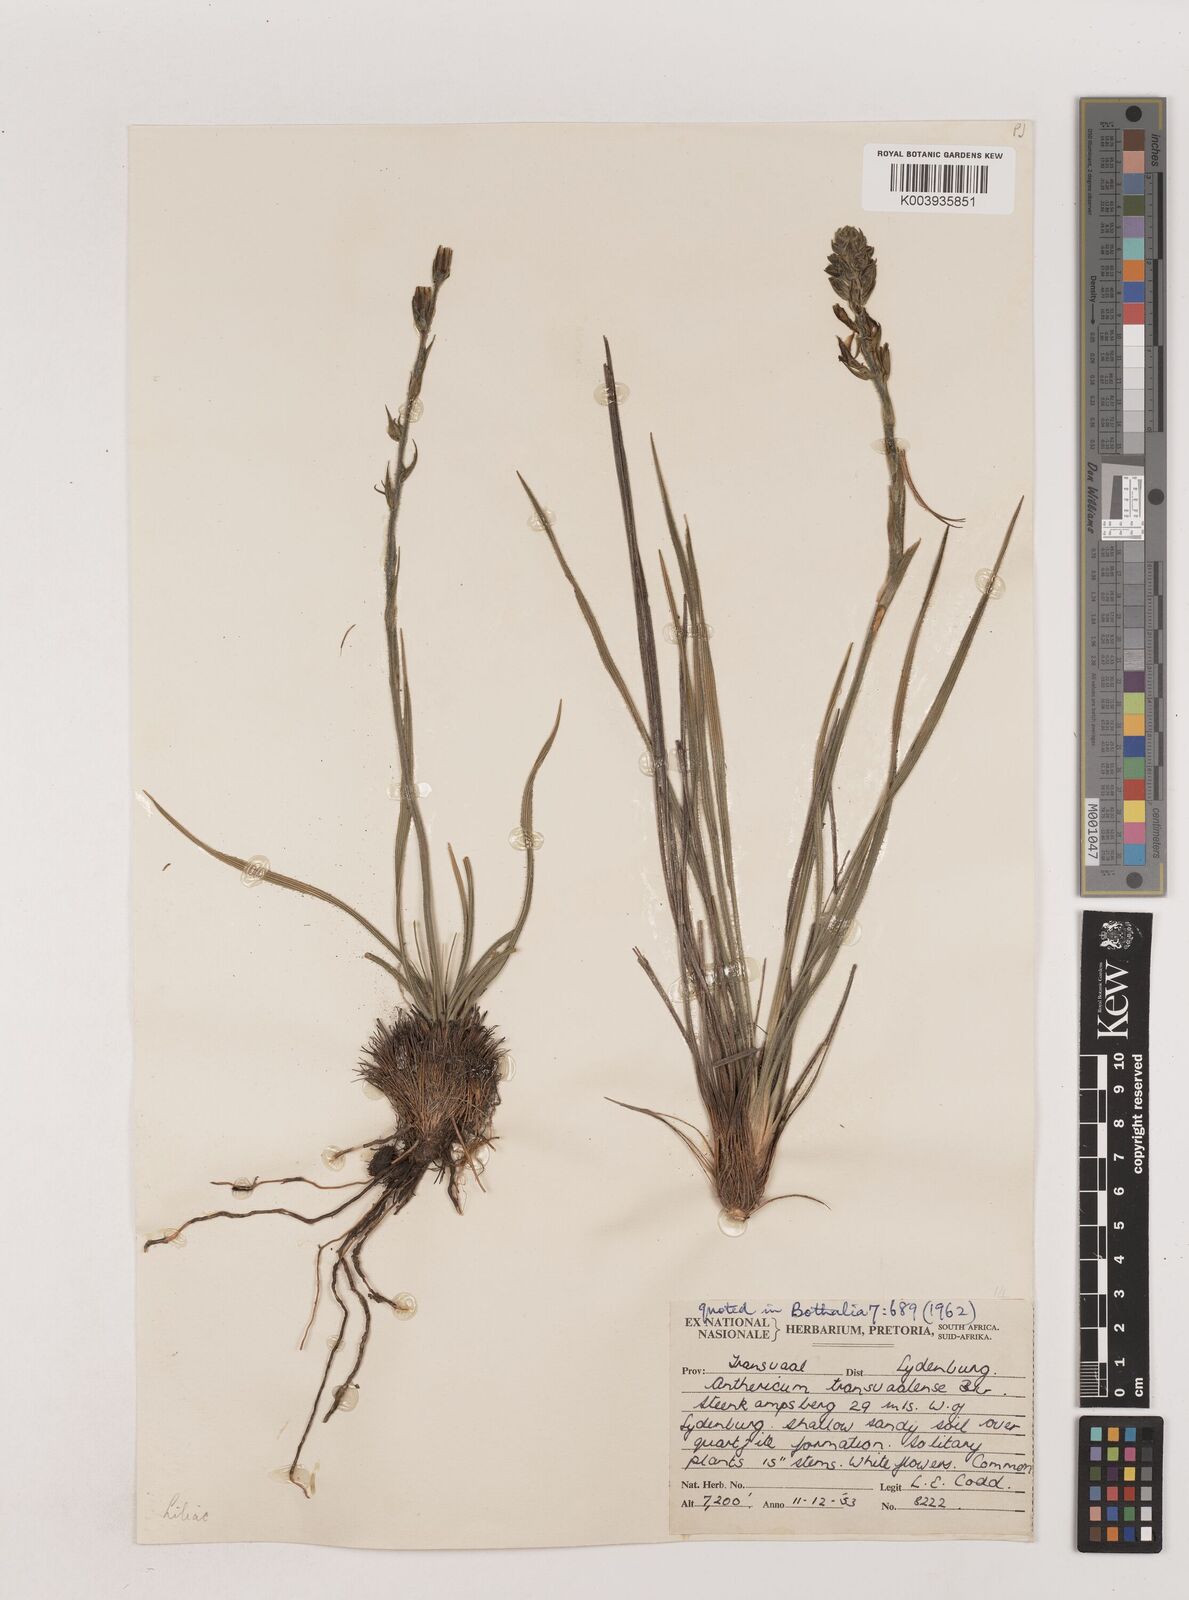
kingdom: Plantae
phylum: Tracheophyta
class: Liliopsida
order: Asparagales
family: Asparagaceae
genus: Chlorophytum
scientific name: Chlorophytum transvaalense
